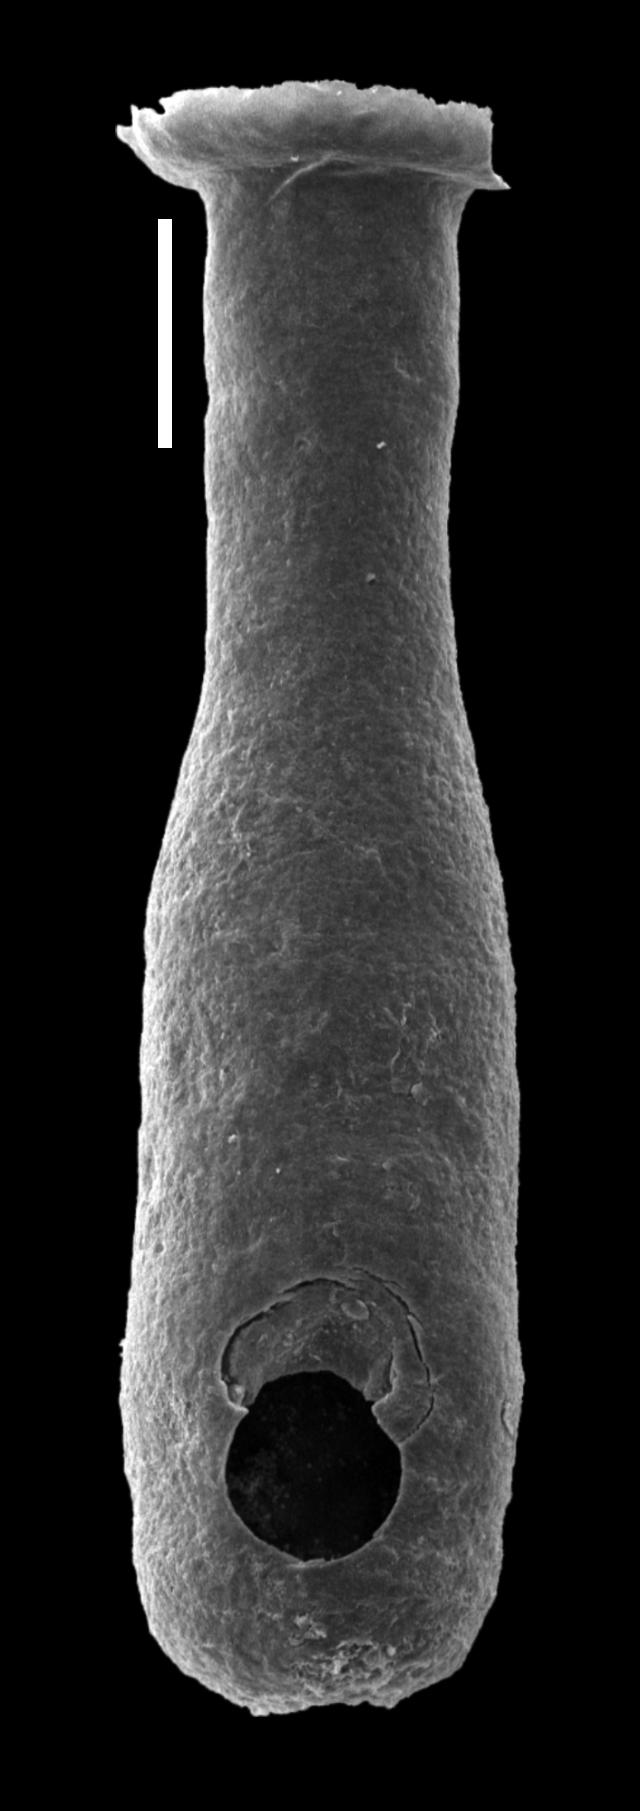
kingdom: Animalia
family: Lagenochitinidae
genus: Lagenochitina
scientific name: Lagenochitina
